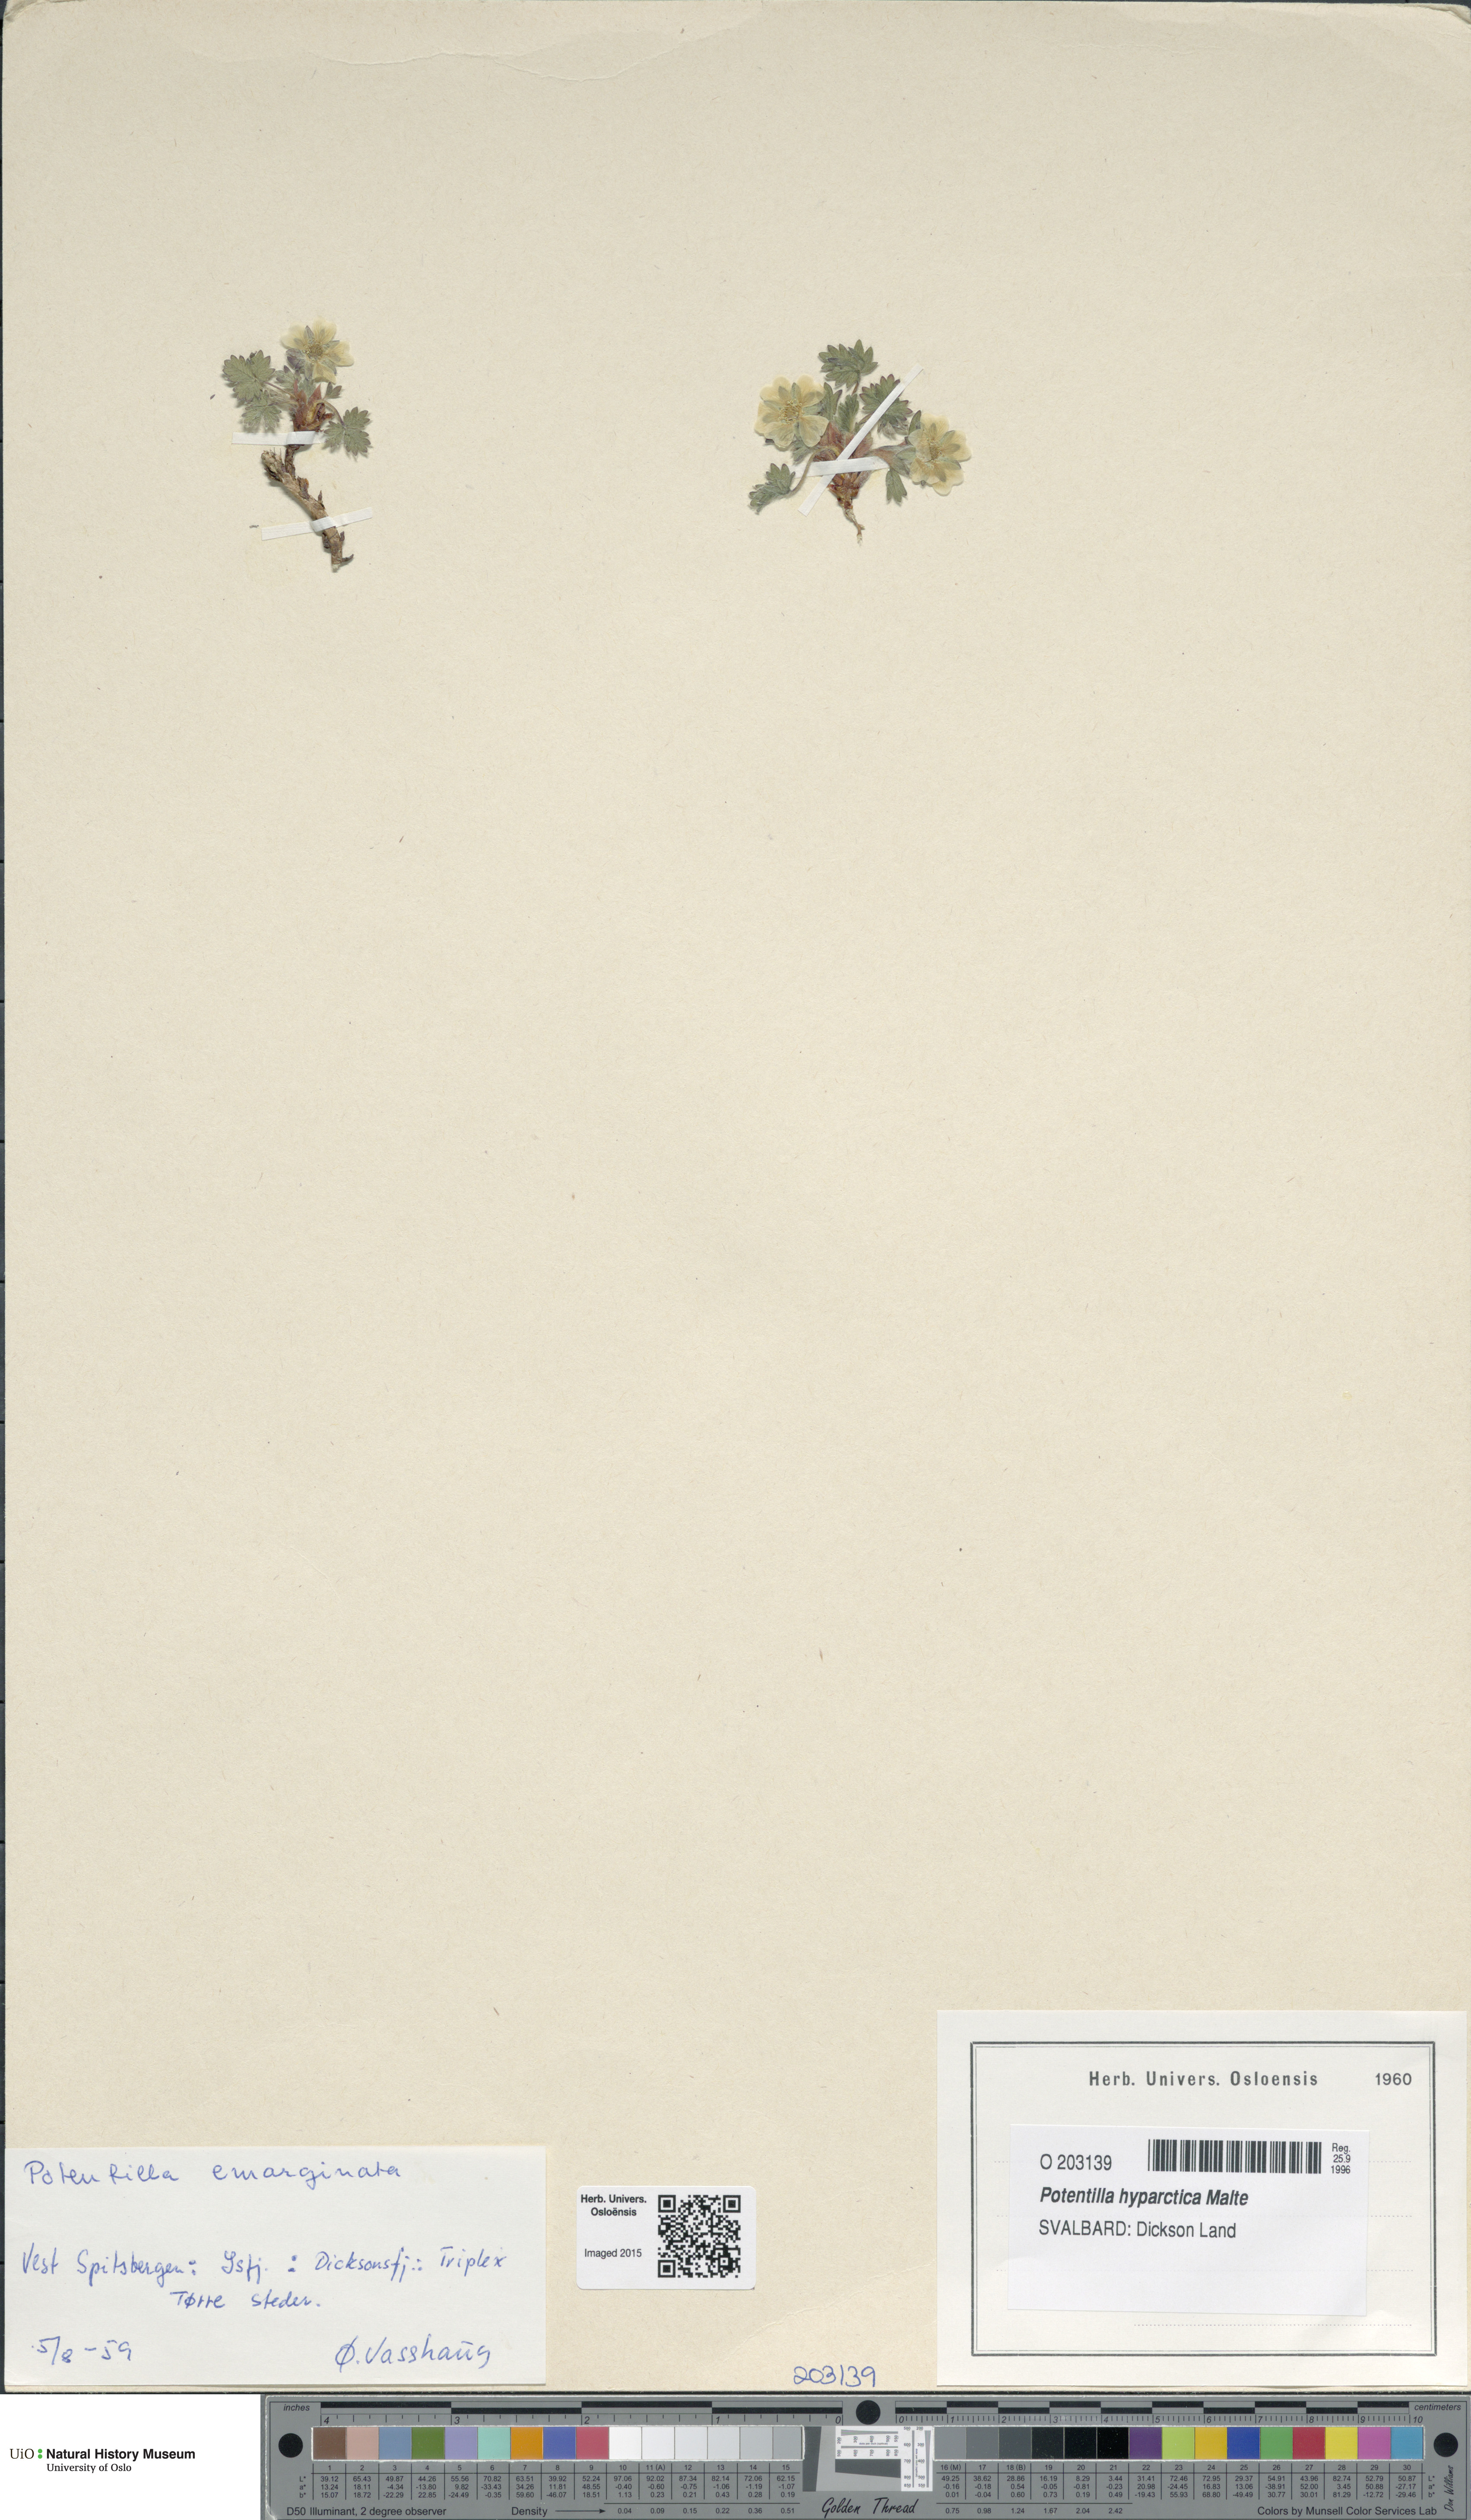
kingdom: Plantae
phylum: Tracheophyta
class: Magnoliopsida
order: Rosales
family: Rosaceae
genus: Potentilla
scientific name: Potentilla hyparctica
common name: Arctic cinquefoil
